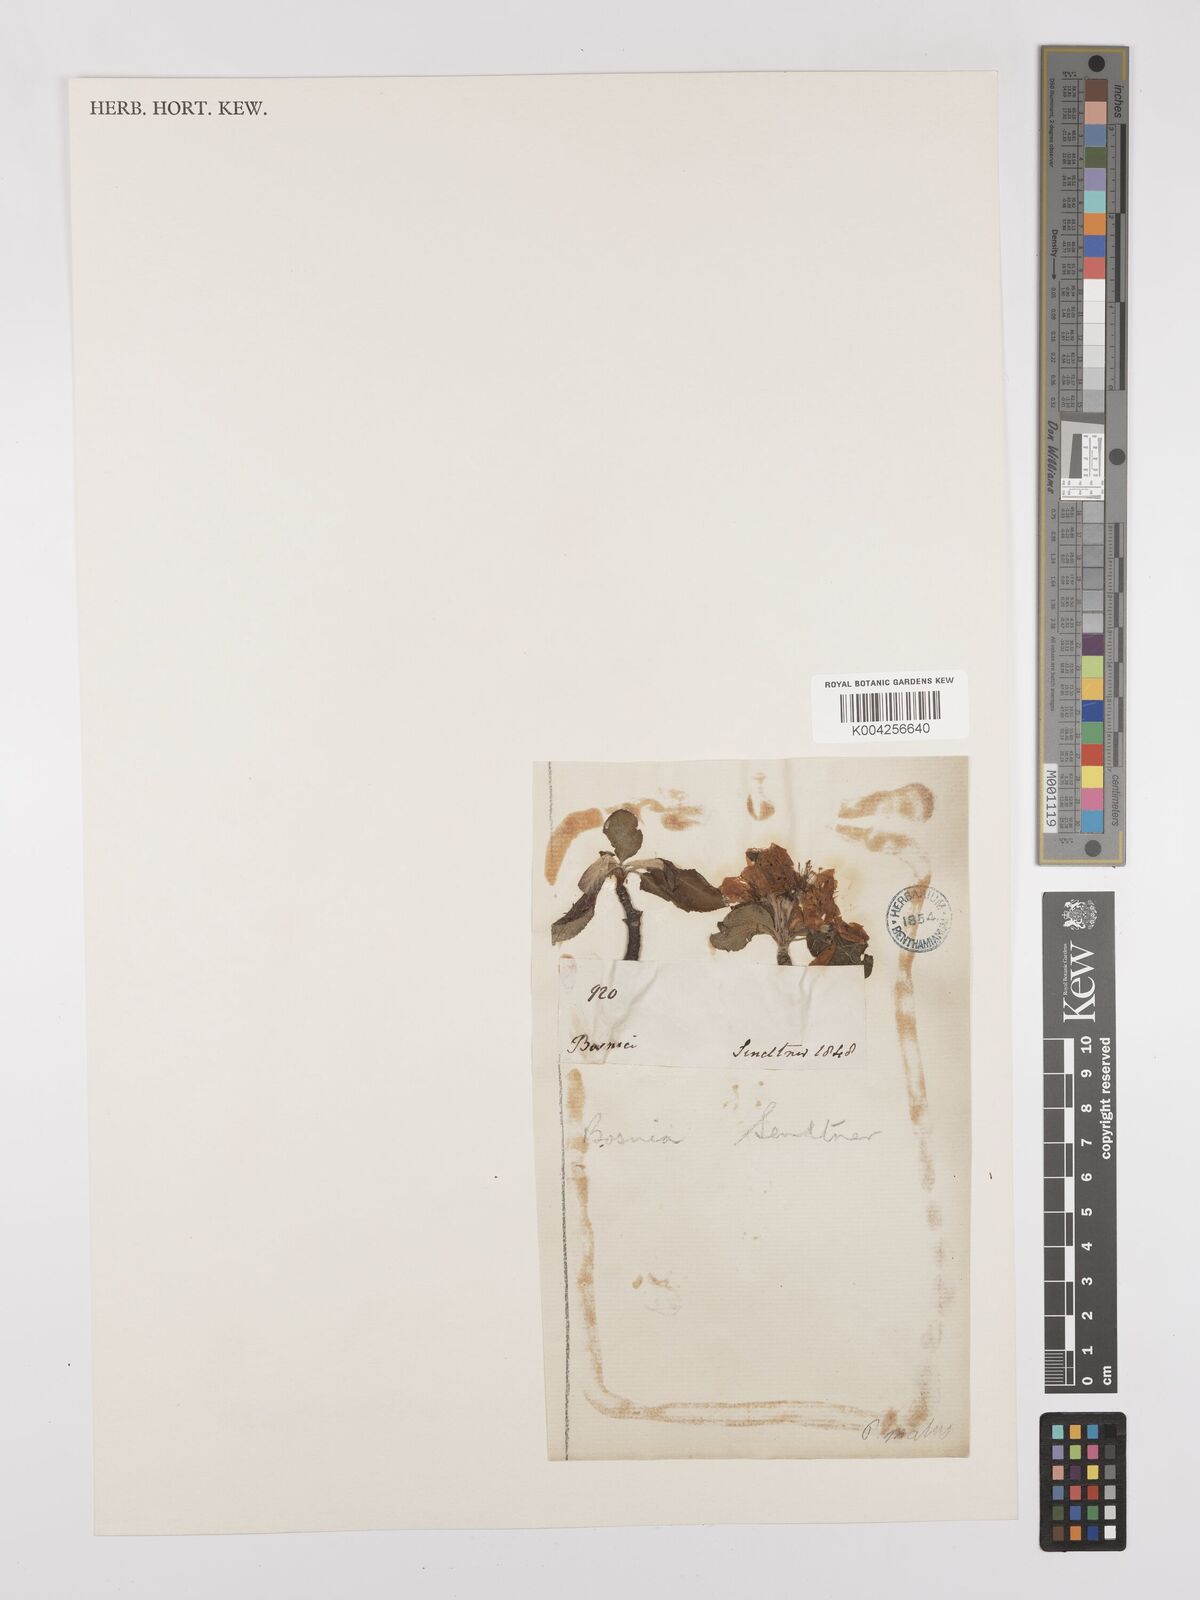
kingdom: Plantae
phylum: Tracheophyta
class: Magnoliopsida
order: Rosales
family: Rosaceae
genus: Malus
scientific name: Malus
